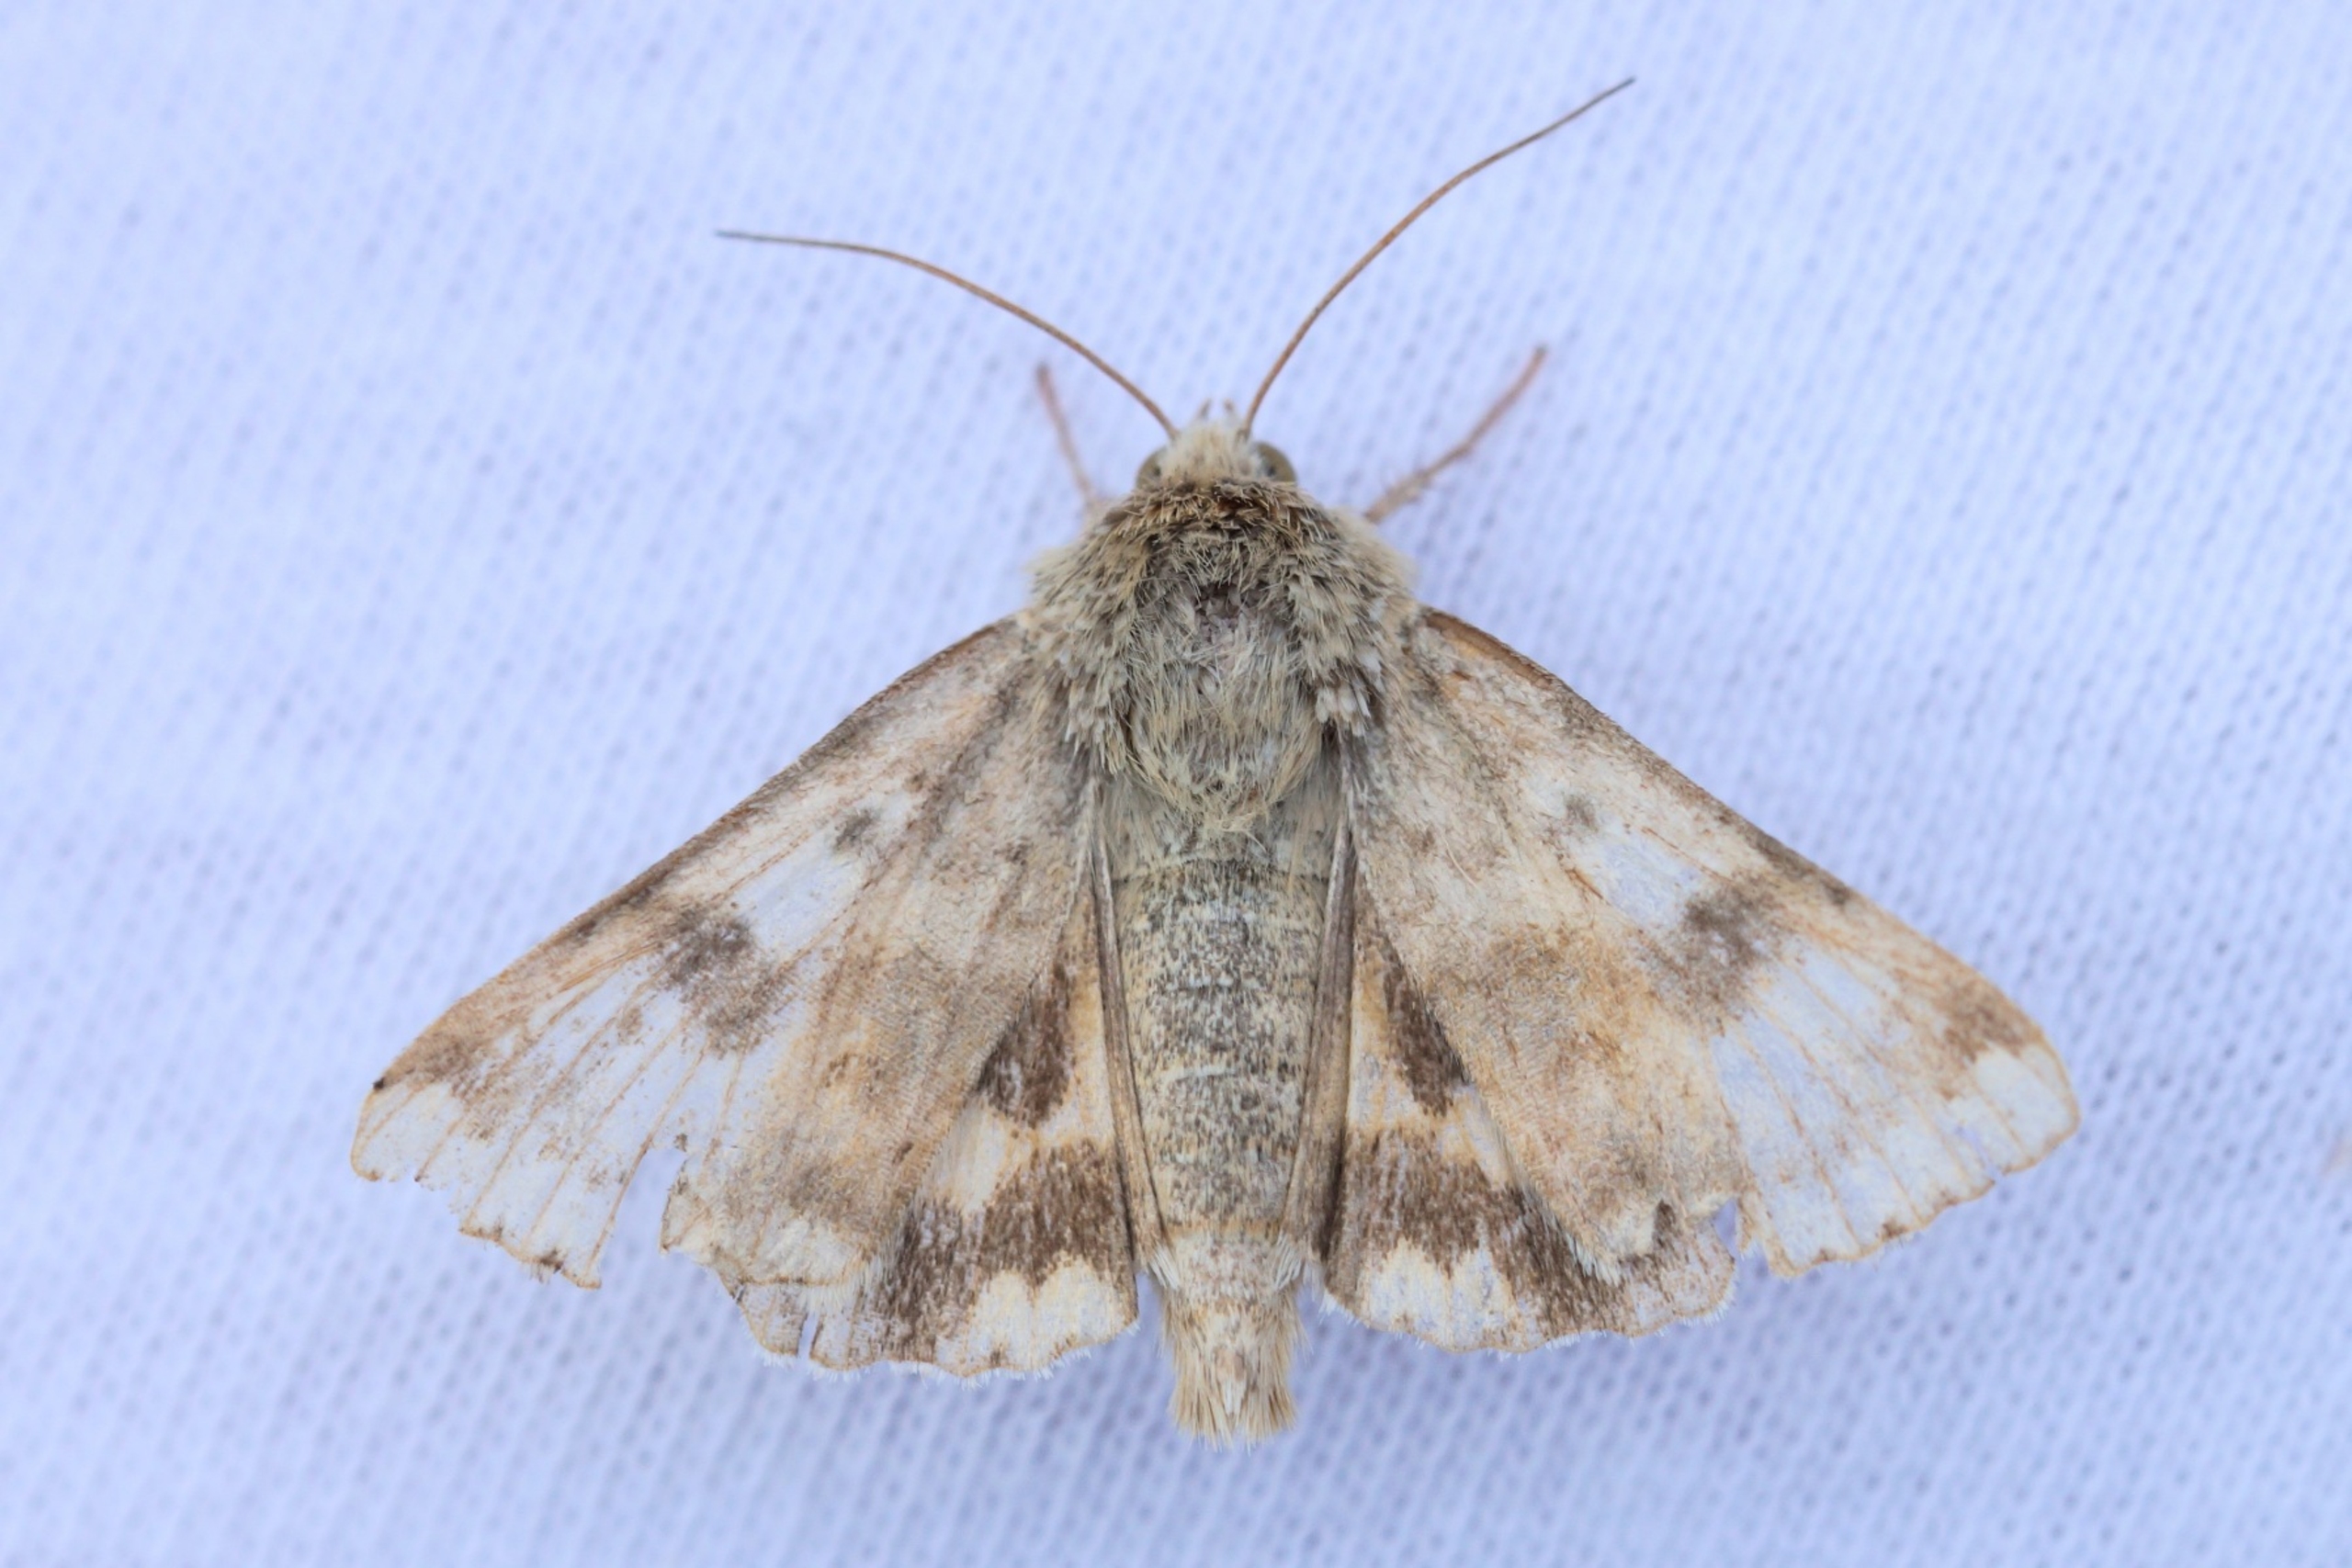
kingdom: Animalia
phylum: Arthropoda
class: Insecta
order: Lepidoptera
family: Noctuidae
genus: Heliothis
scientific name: Heliothis viriplaca
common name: Cikorieugle
